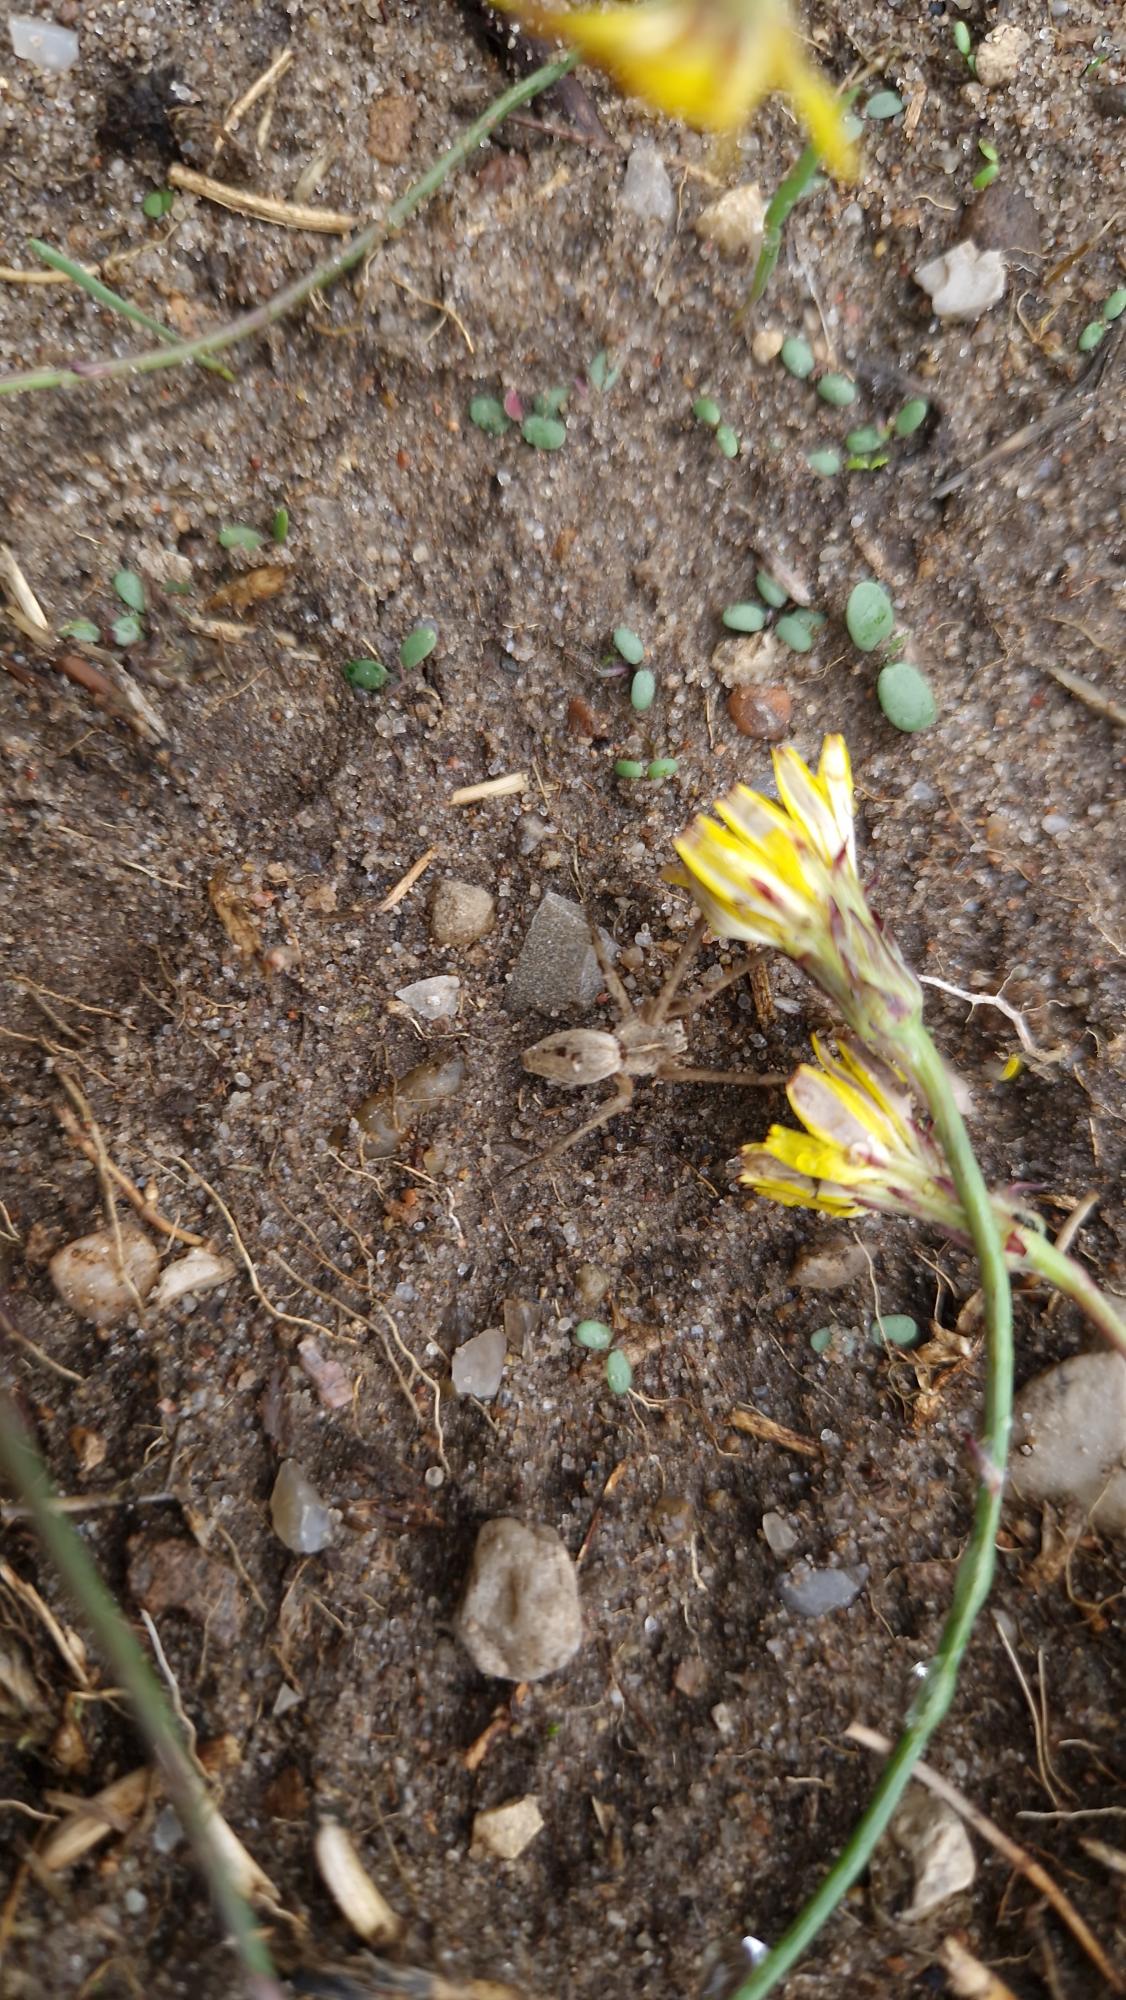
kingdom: Animalia
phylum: Arthropoda
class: Arachnida
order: Araneae
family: Pisauridae
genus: Pisaura
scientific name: Pisaura mirabilis
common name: Almindelig rovedderkop
